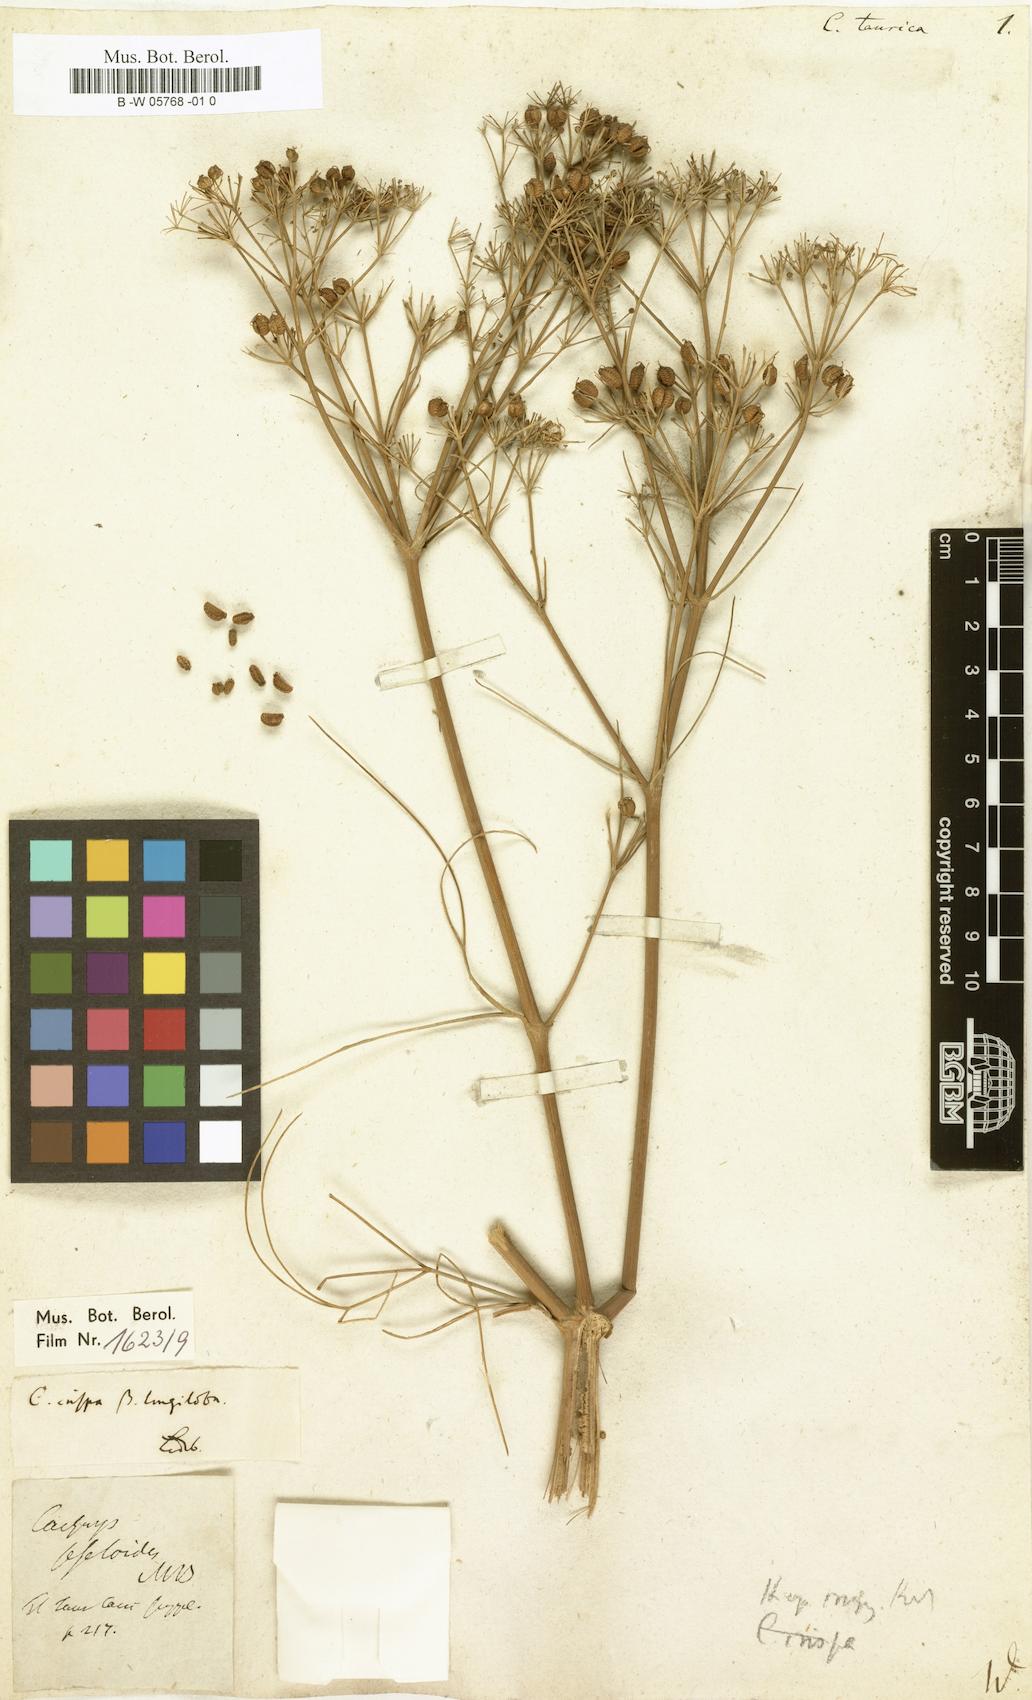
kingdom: Plantae
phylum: Tracheophyta
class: Magnoliopsida
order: Apiales
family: Apiaceae
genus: Trinia
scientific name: Trinia crithmifolia
